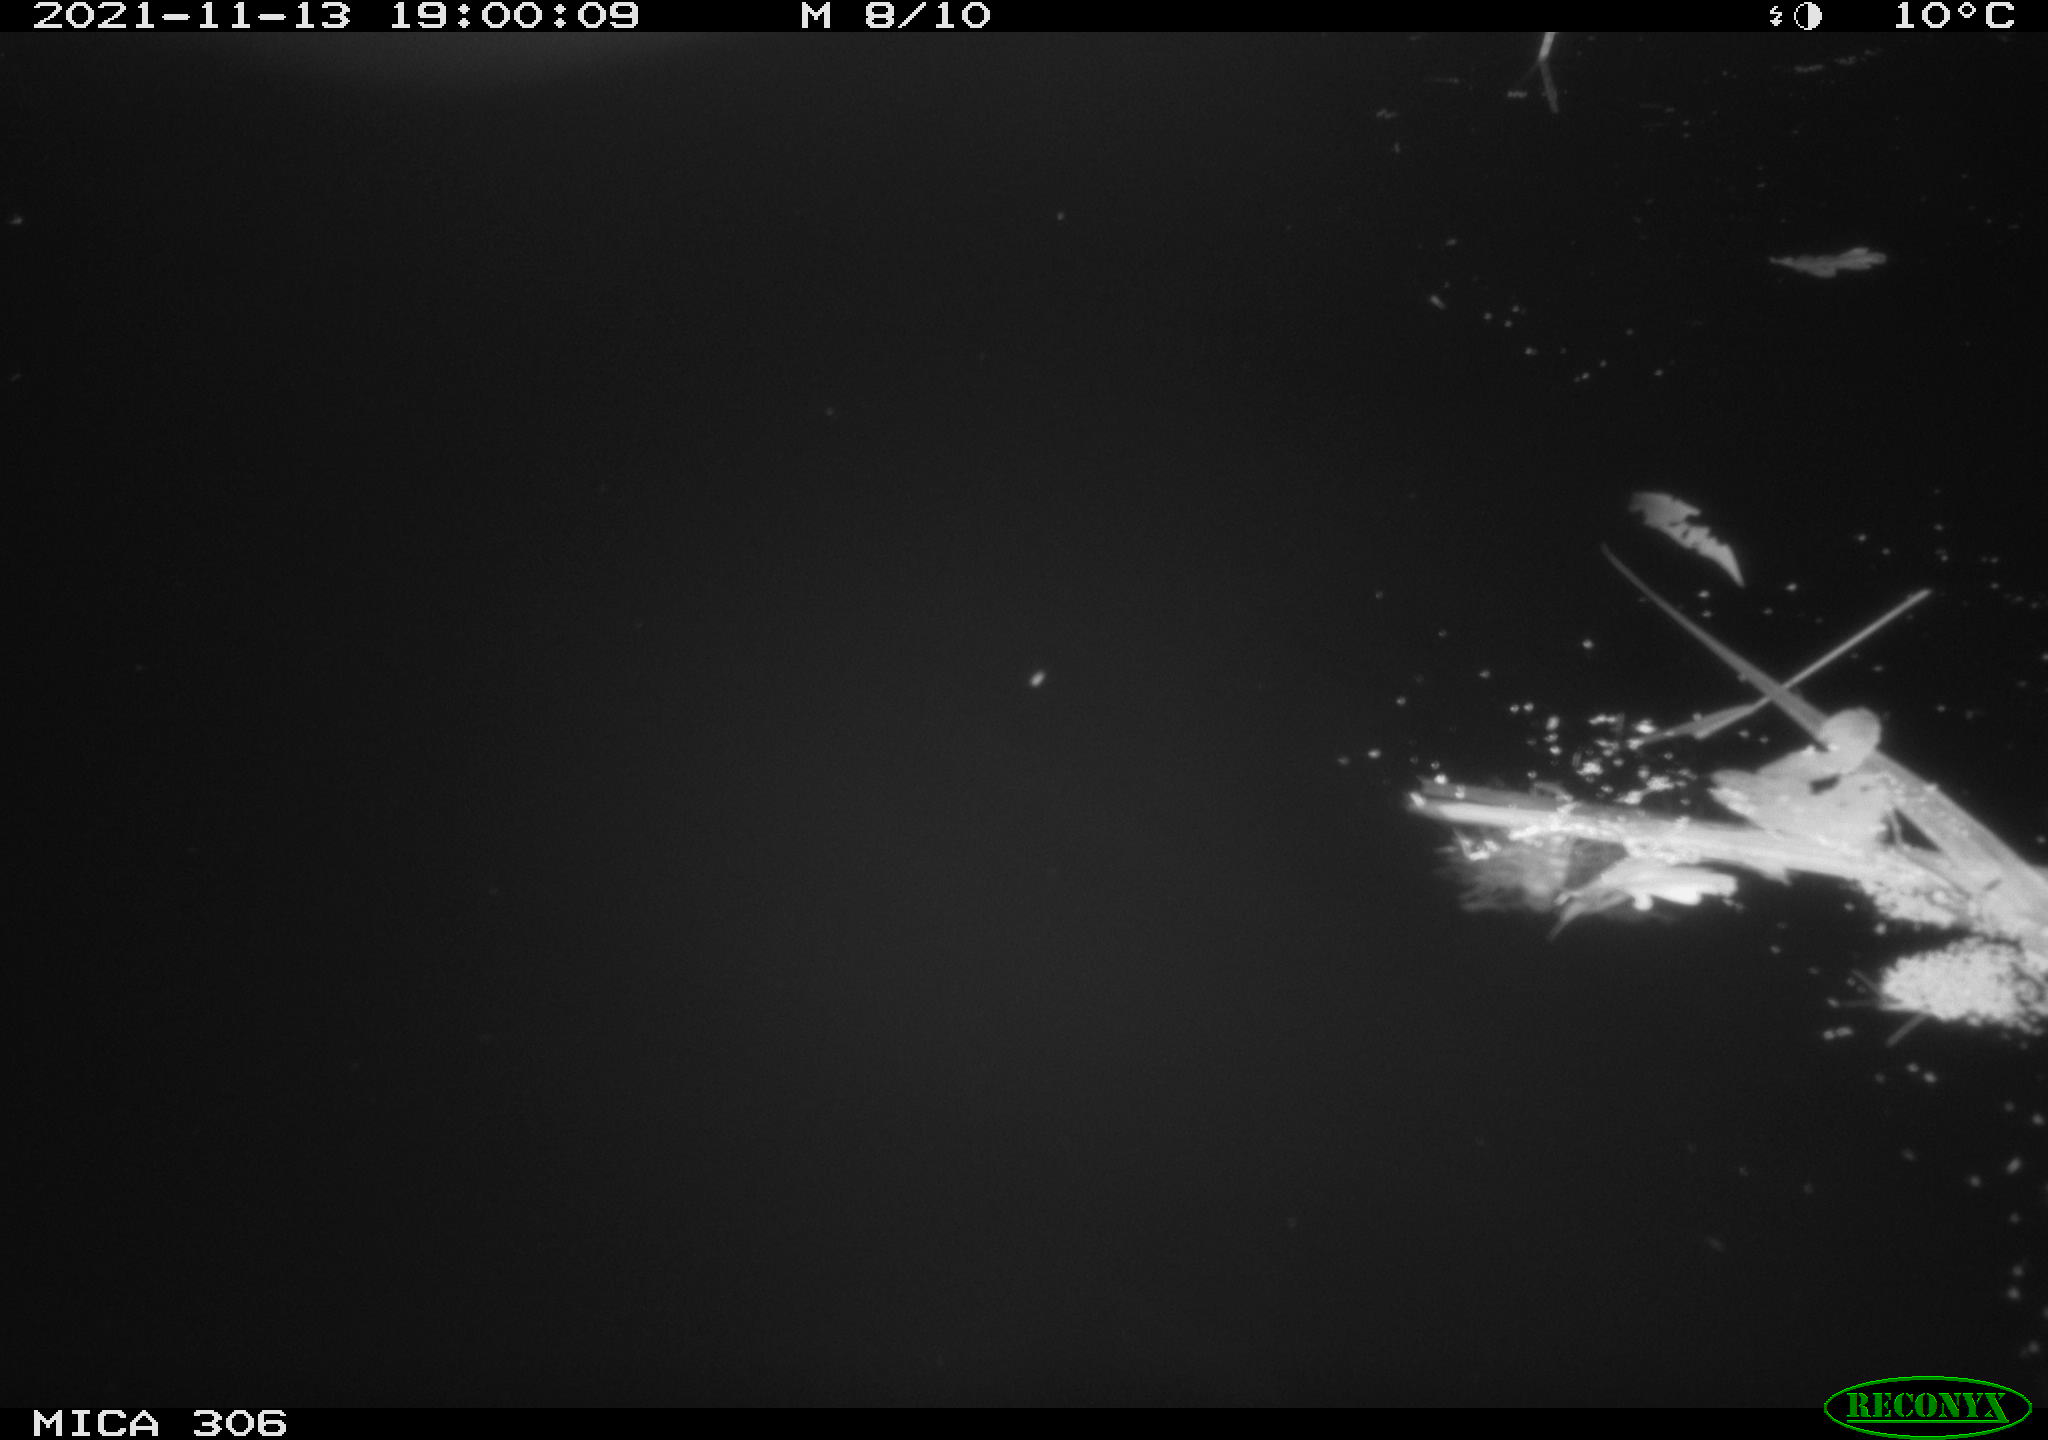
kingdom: Animalia
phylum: Chordata
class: Mammalia
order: Rodentia
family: Muridae
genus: Rattus
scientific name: Rattus norvegicus
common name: Brown rat
